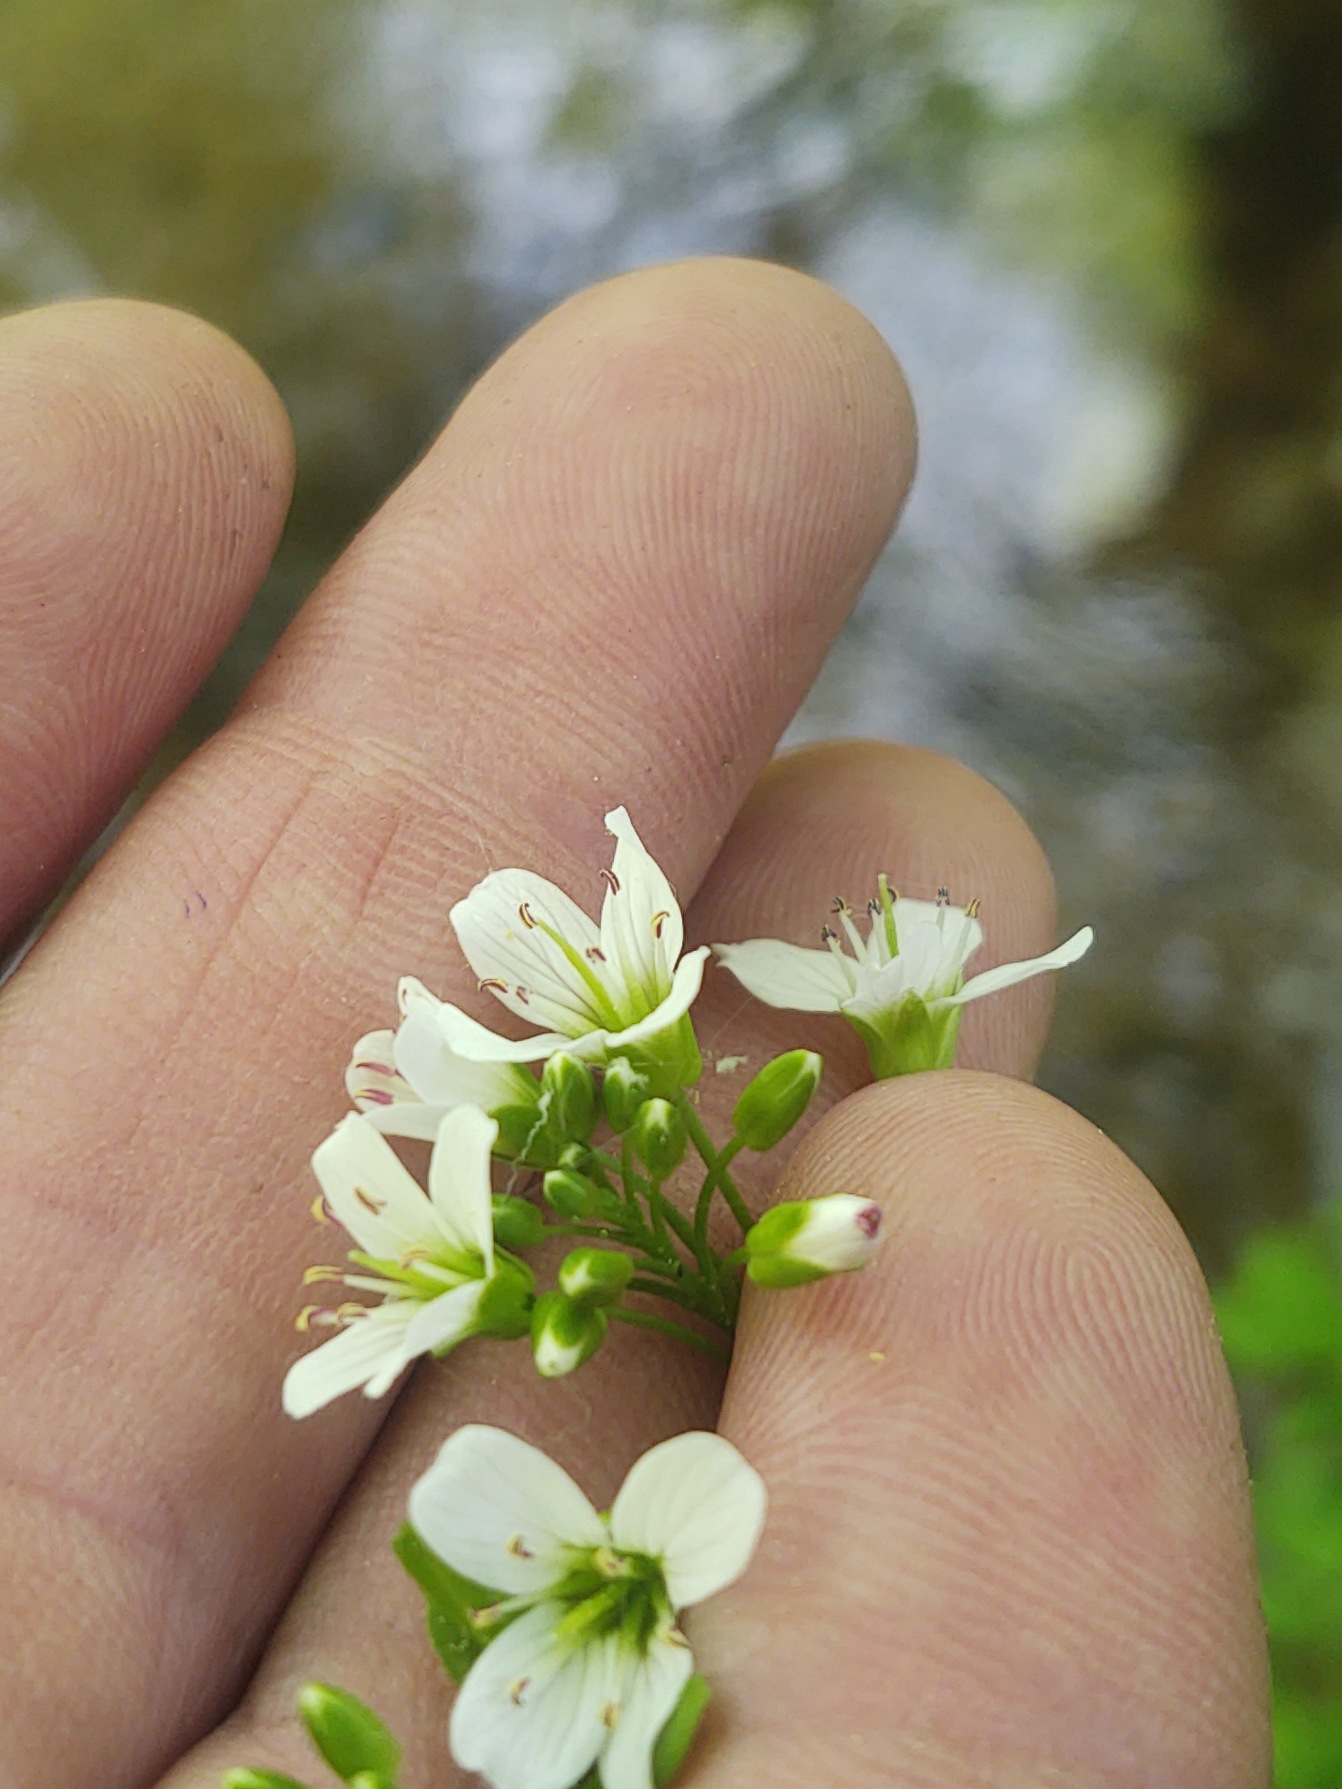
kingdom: Plantae
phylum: Tracheophyta
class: Magnoliopsida
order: Brassicales
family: Brassicaceae
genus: Cardamine
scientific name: Cardamine amara
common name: Vandkarse
